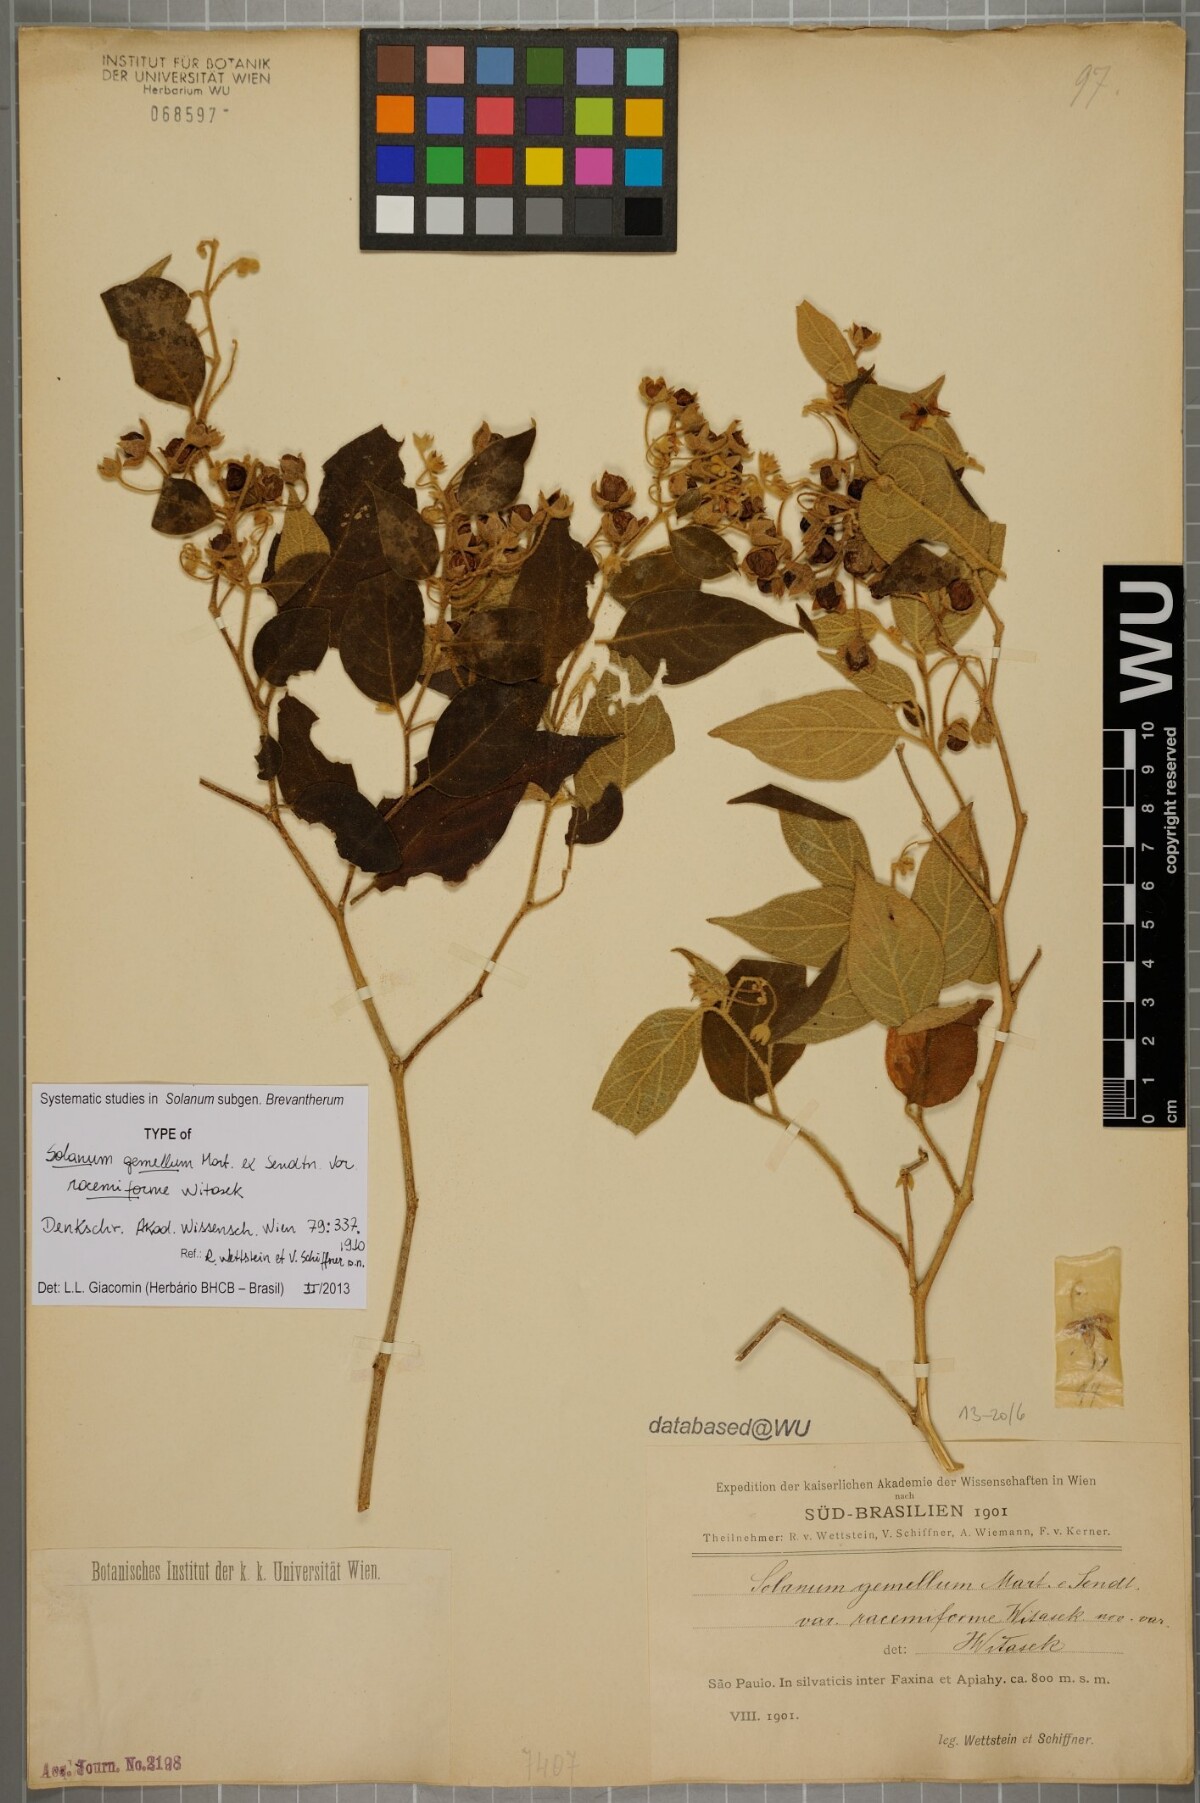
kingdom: Plantae
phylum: Tracheophyta
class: Magnoliopsida
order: Solanales
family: Solanaceae
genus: Solanum
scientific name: Solanum didymum
